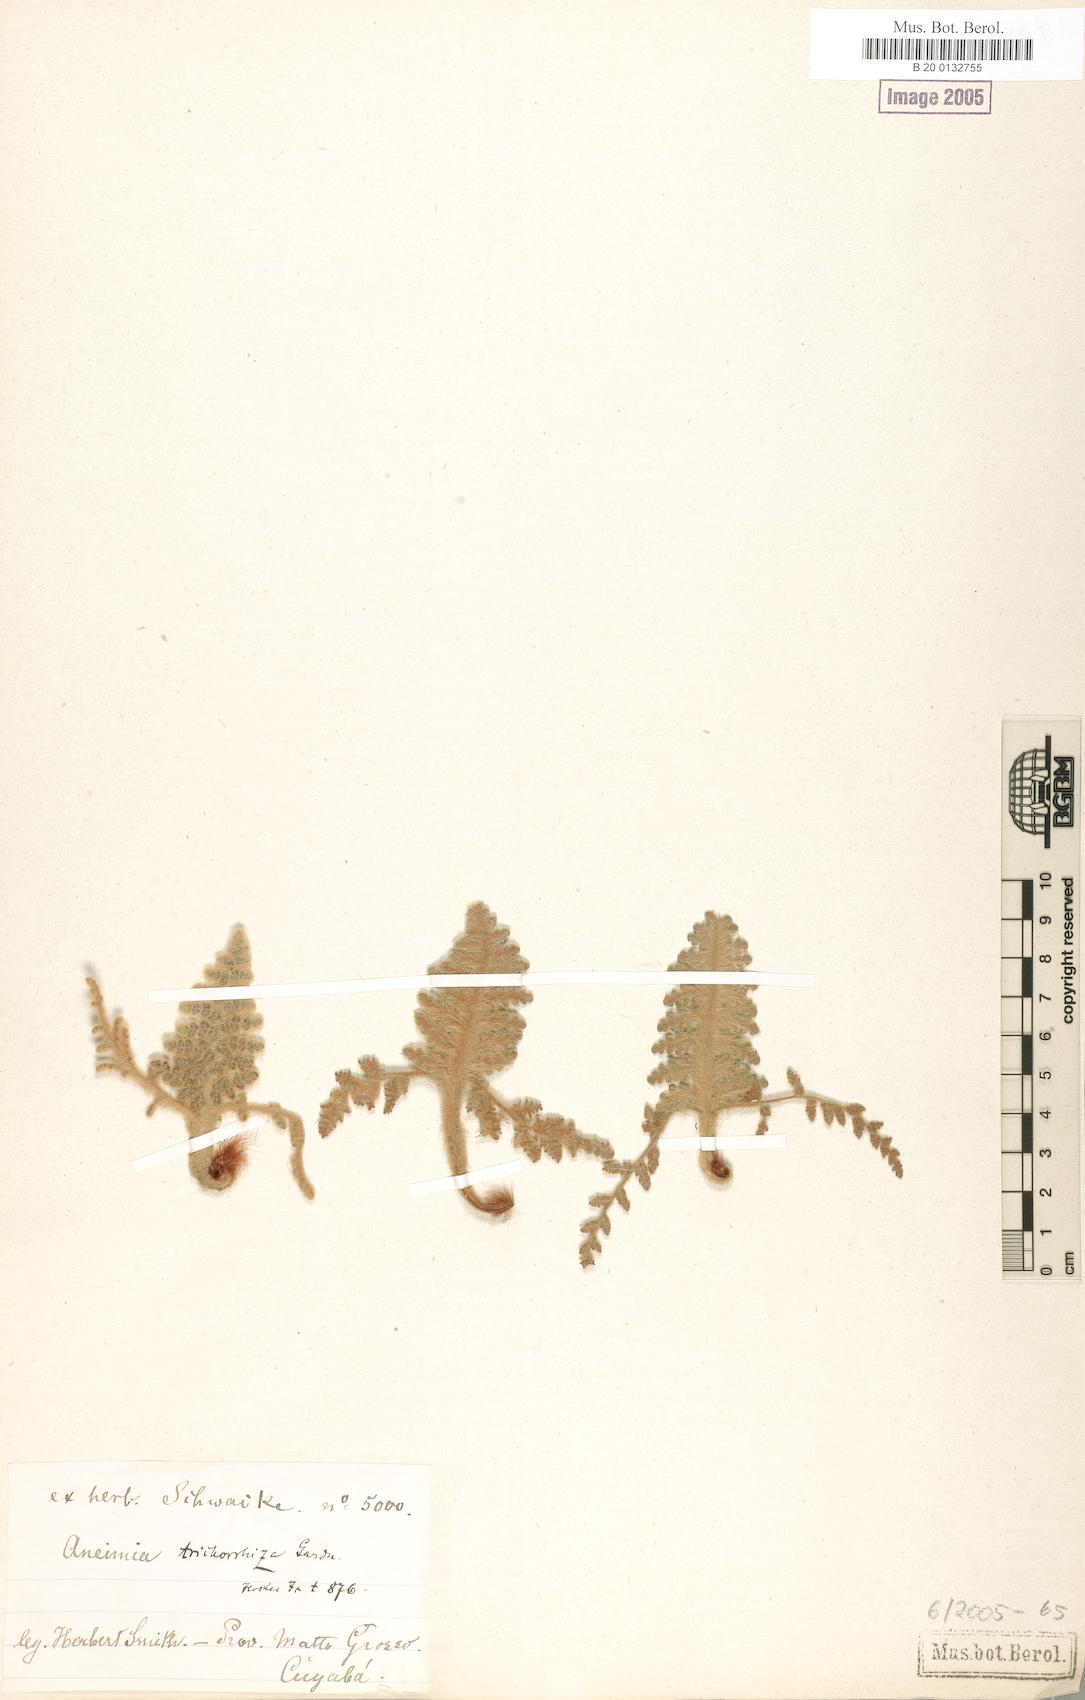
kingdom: Plantae
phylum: Tracheophyta
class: Polypodiopsida
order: Schizaeales
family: Anemiaceae
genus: Anemia
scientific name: Anemia trichorhiza
